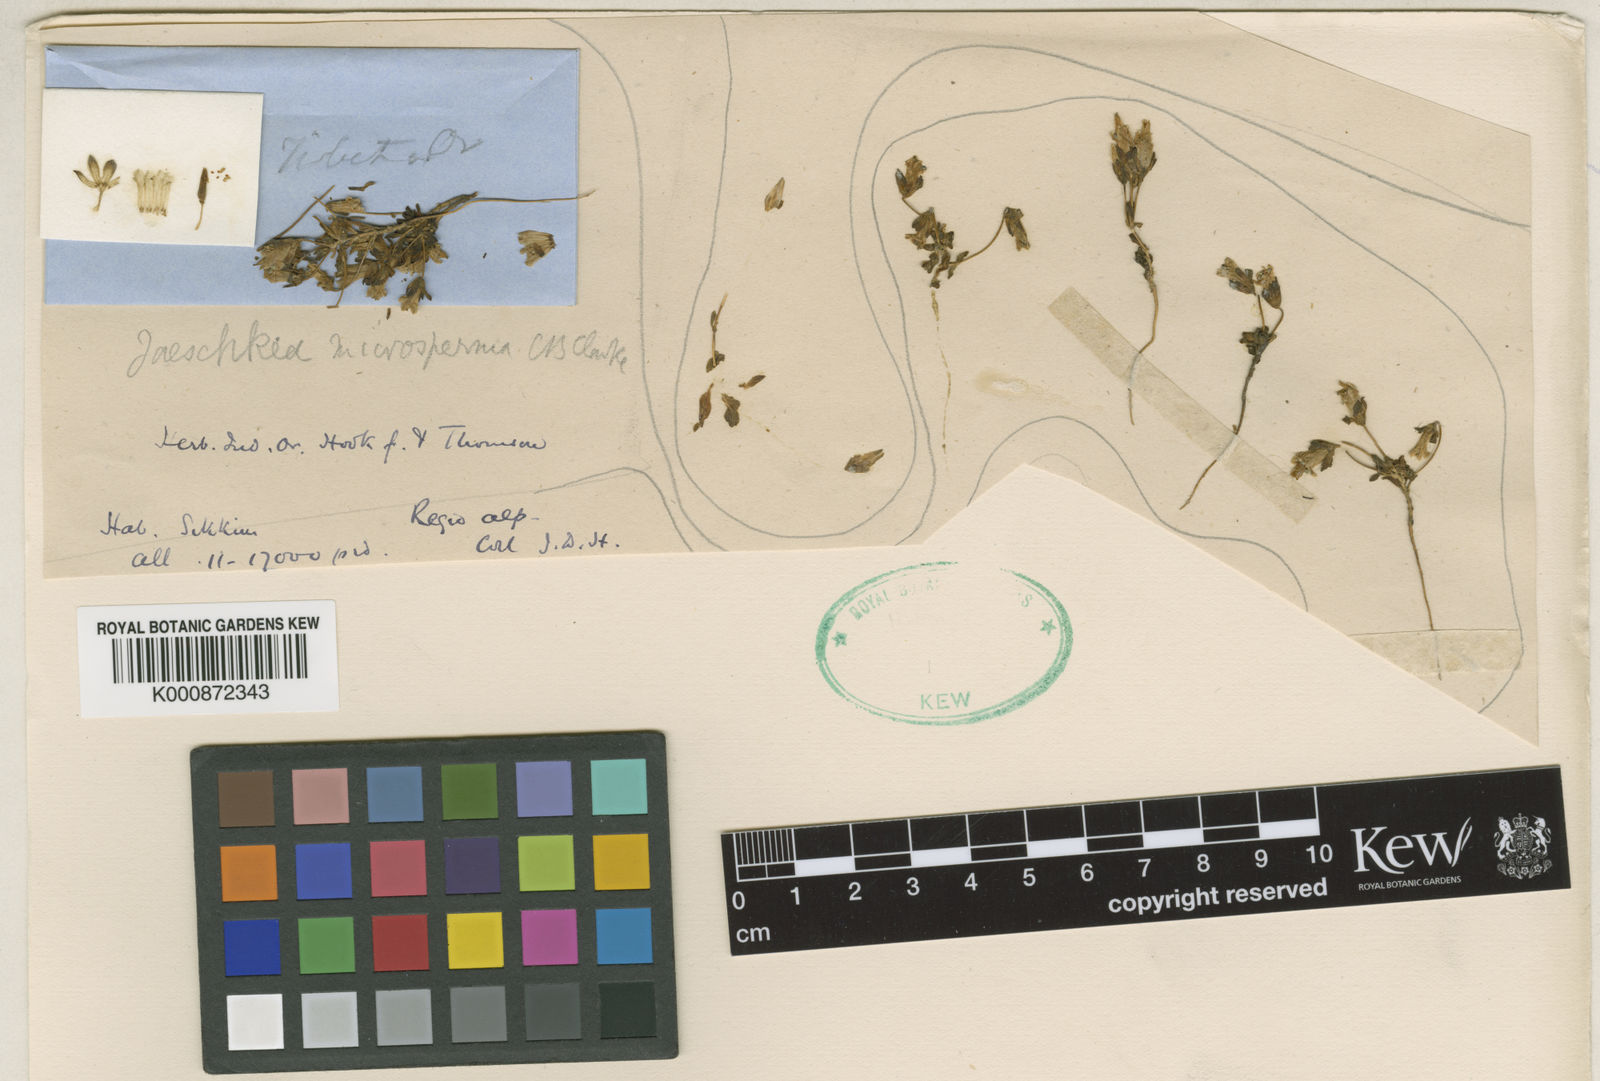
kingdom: Plantae
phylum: Tracheophyta
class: Magnoliopsida
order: Gentianales
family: Gentianaceae
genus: Jaeschkea
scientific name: Jaeschkea microsperma
